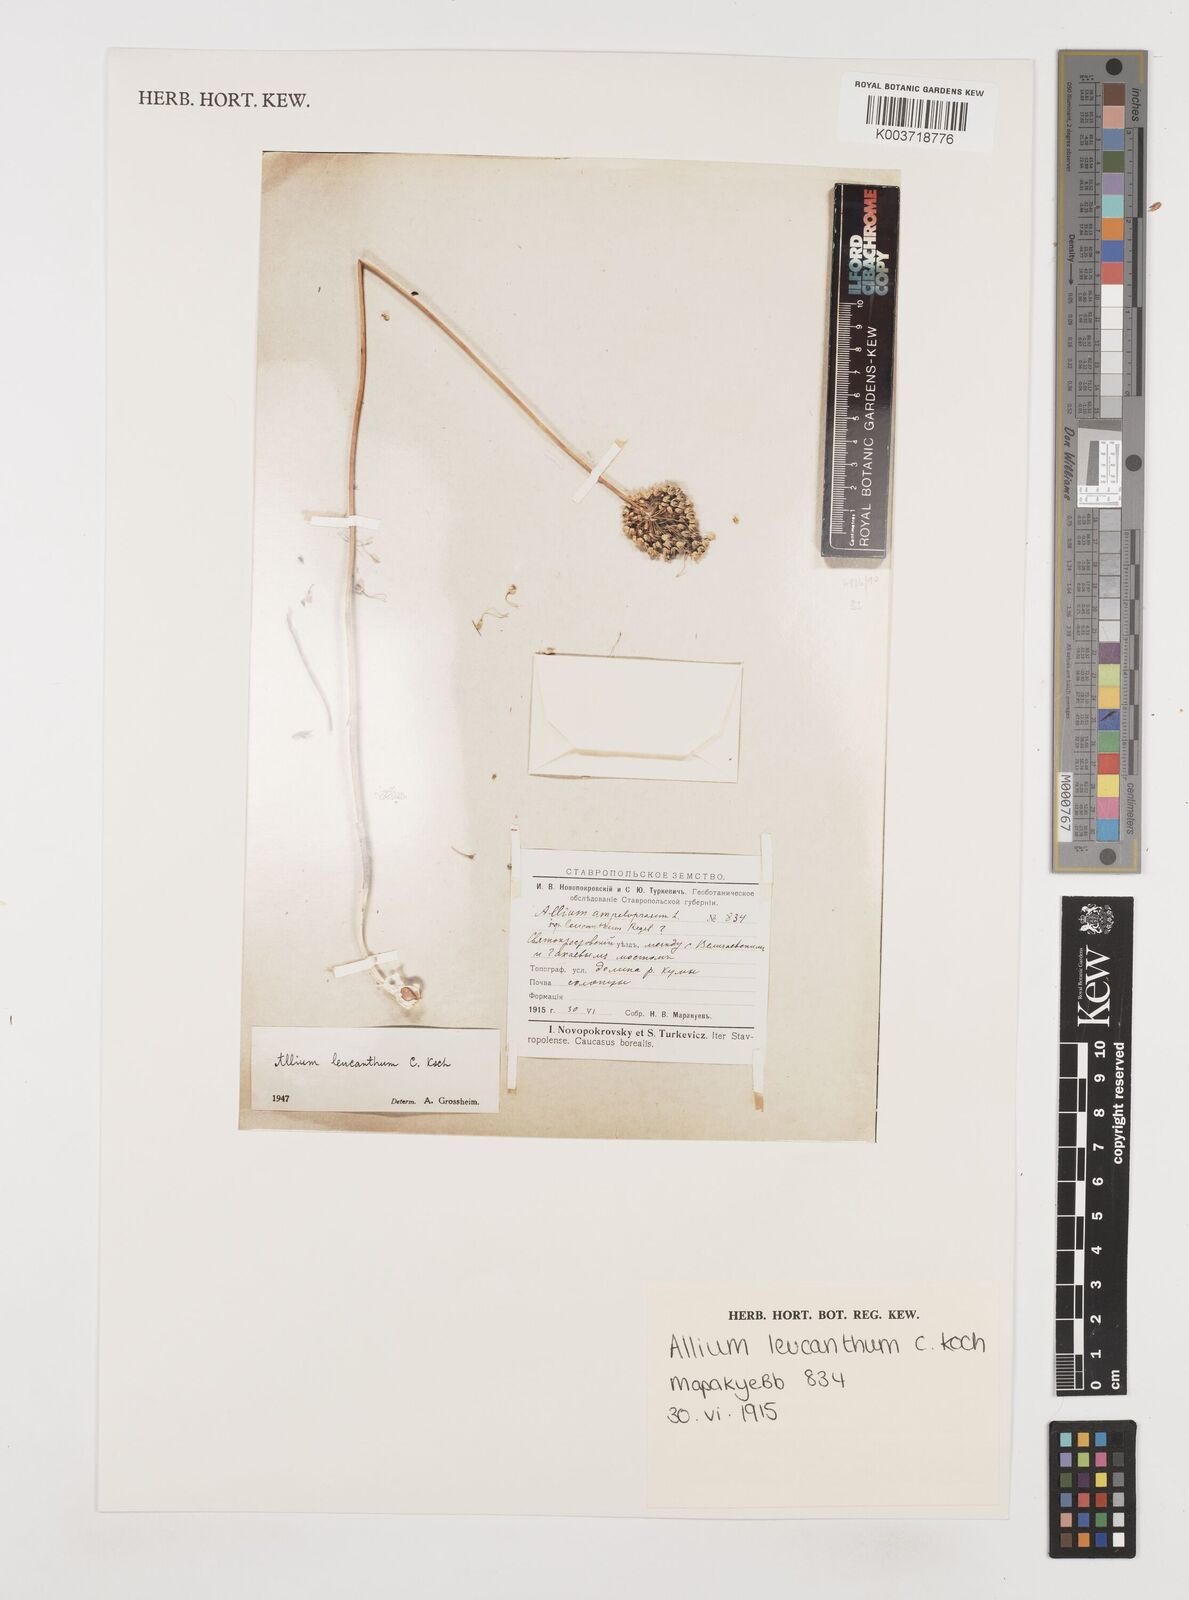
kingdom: Plantae
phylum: Tracheophyta
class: Liliopsida
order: Asparagales
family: Amaryllidaceae
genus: Allium
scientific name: Allium ampeloprasum
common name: Wild leek
